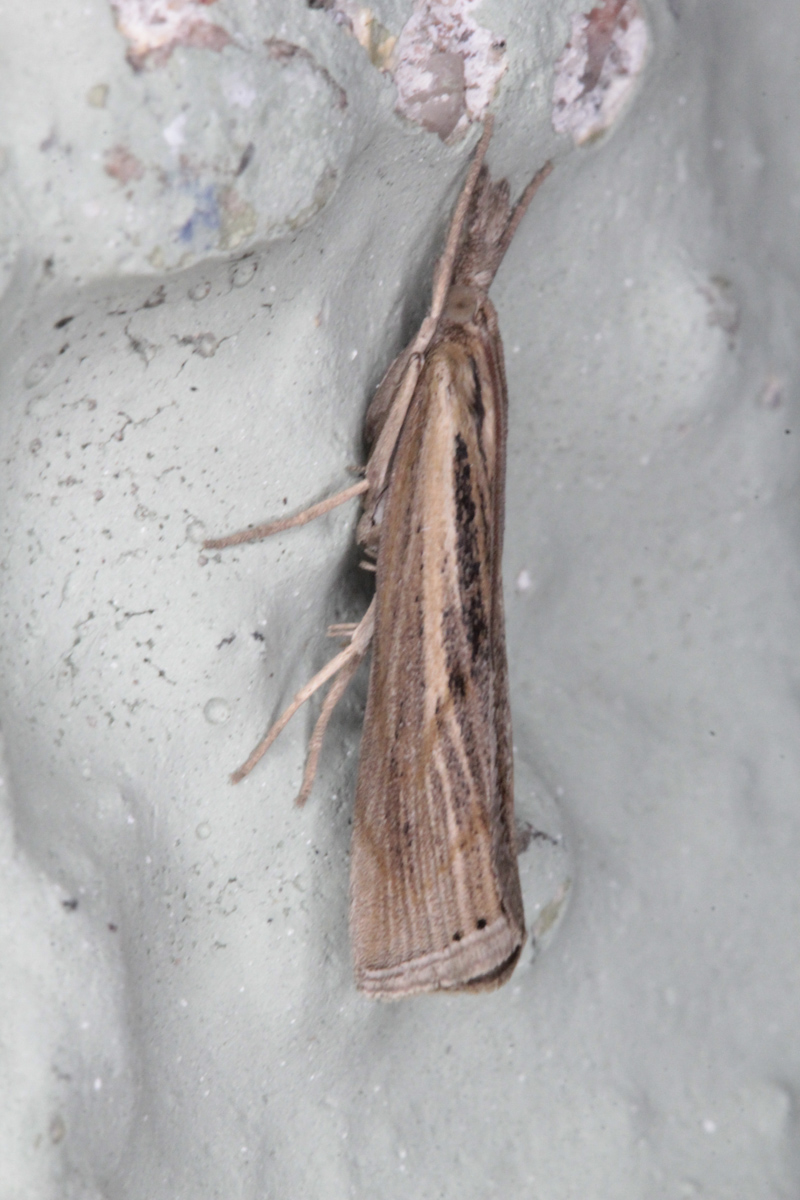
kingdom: Animalia
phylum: Arthropoda
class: Insecta
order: Lepidoptera
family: Crambidae
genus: Agriphila
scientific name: Agriphila inquinatella
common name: Barred grass-veneer
